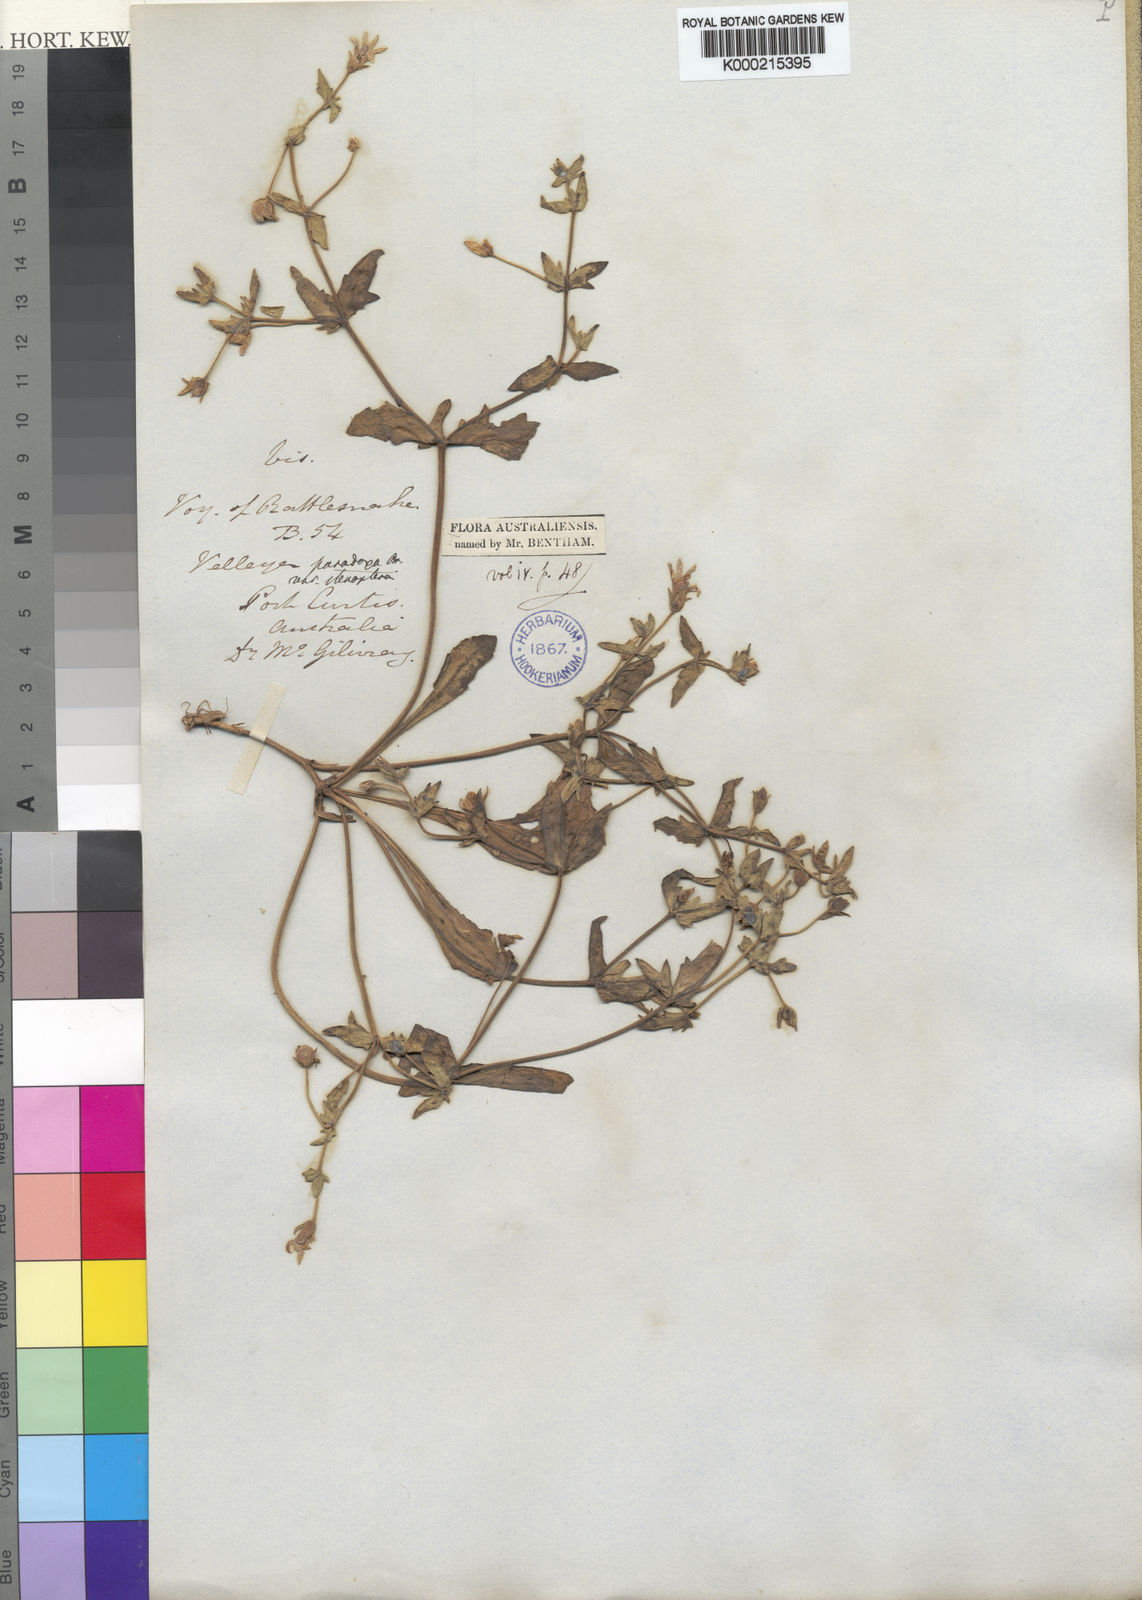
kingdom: Plantae
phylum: Tracheophyta
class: Magnoliopsida
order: Asterales
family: Goodeniaceae
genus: Goodenia
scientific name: Goodenia paradoxa
